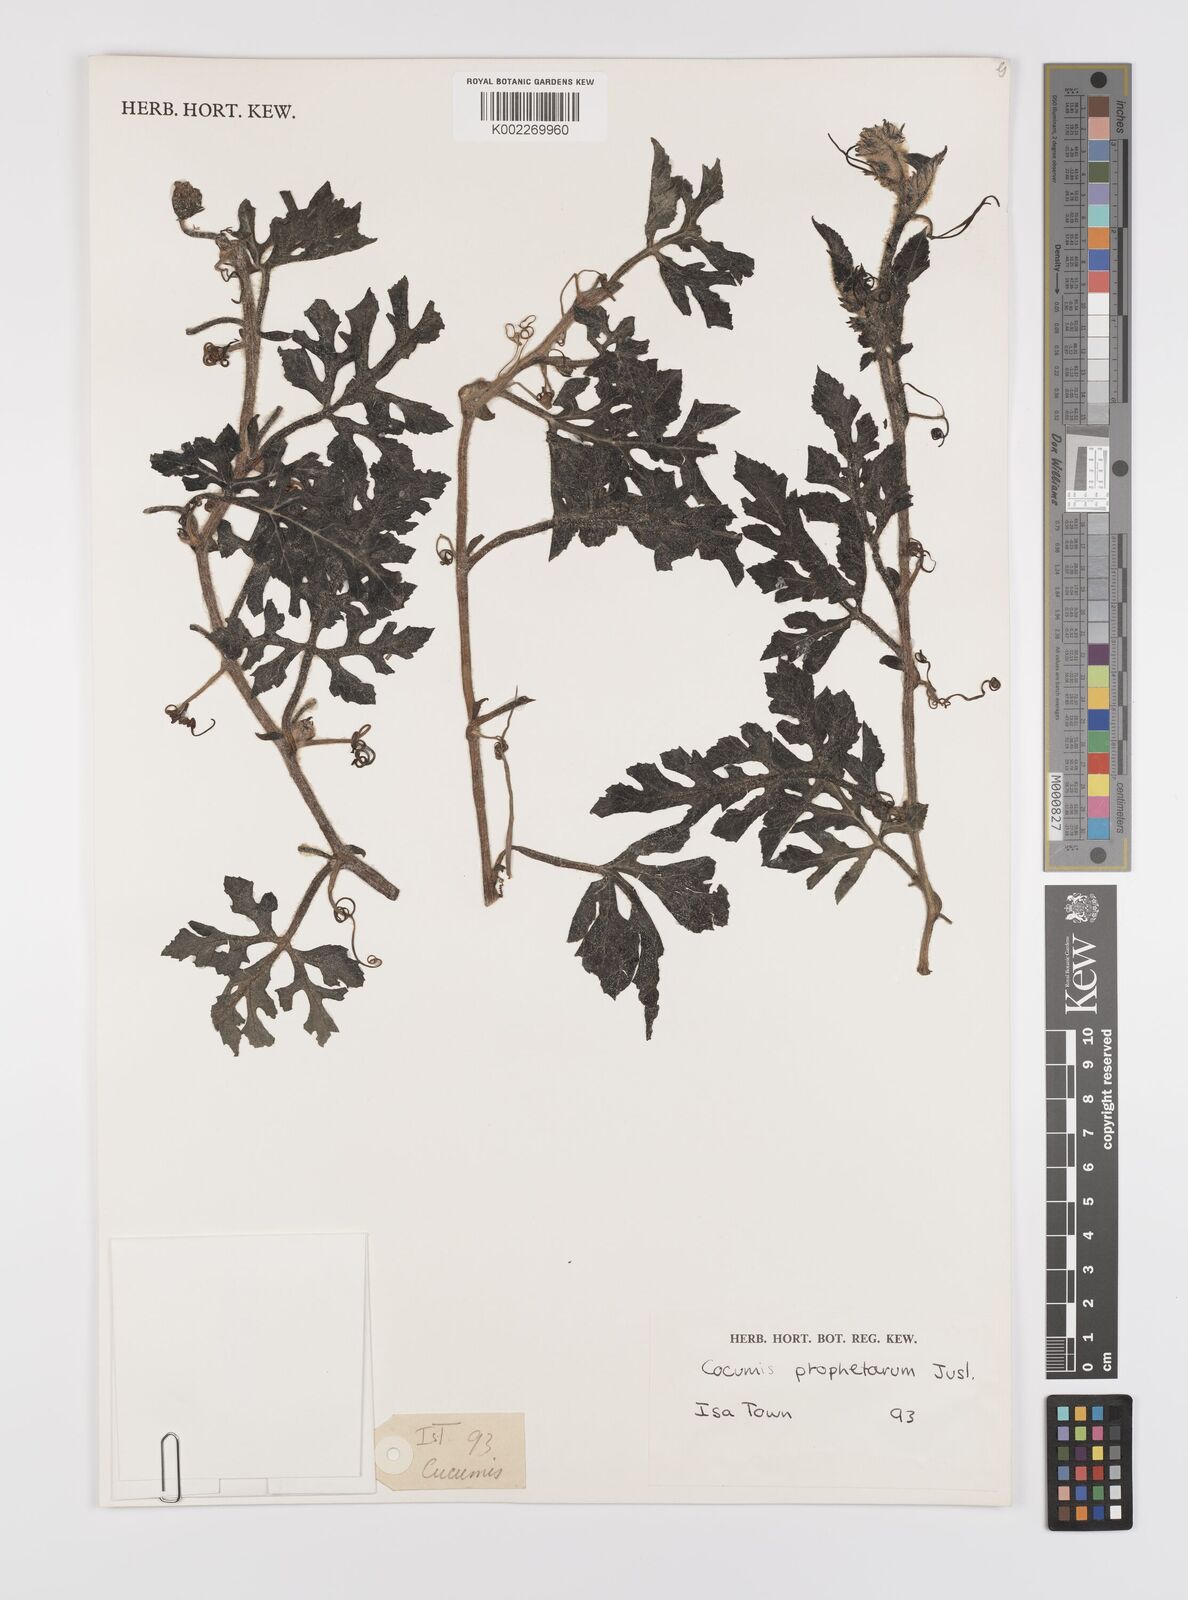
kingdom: Plantae
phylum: Tracheophyta
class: Magnoliopsida
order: Cucurbitales
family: Cucurbitaceae
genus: Citrullus
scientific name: Citrullus lanatus
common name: Watermelon
